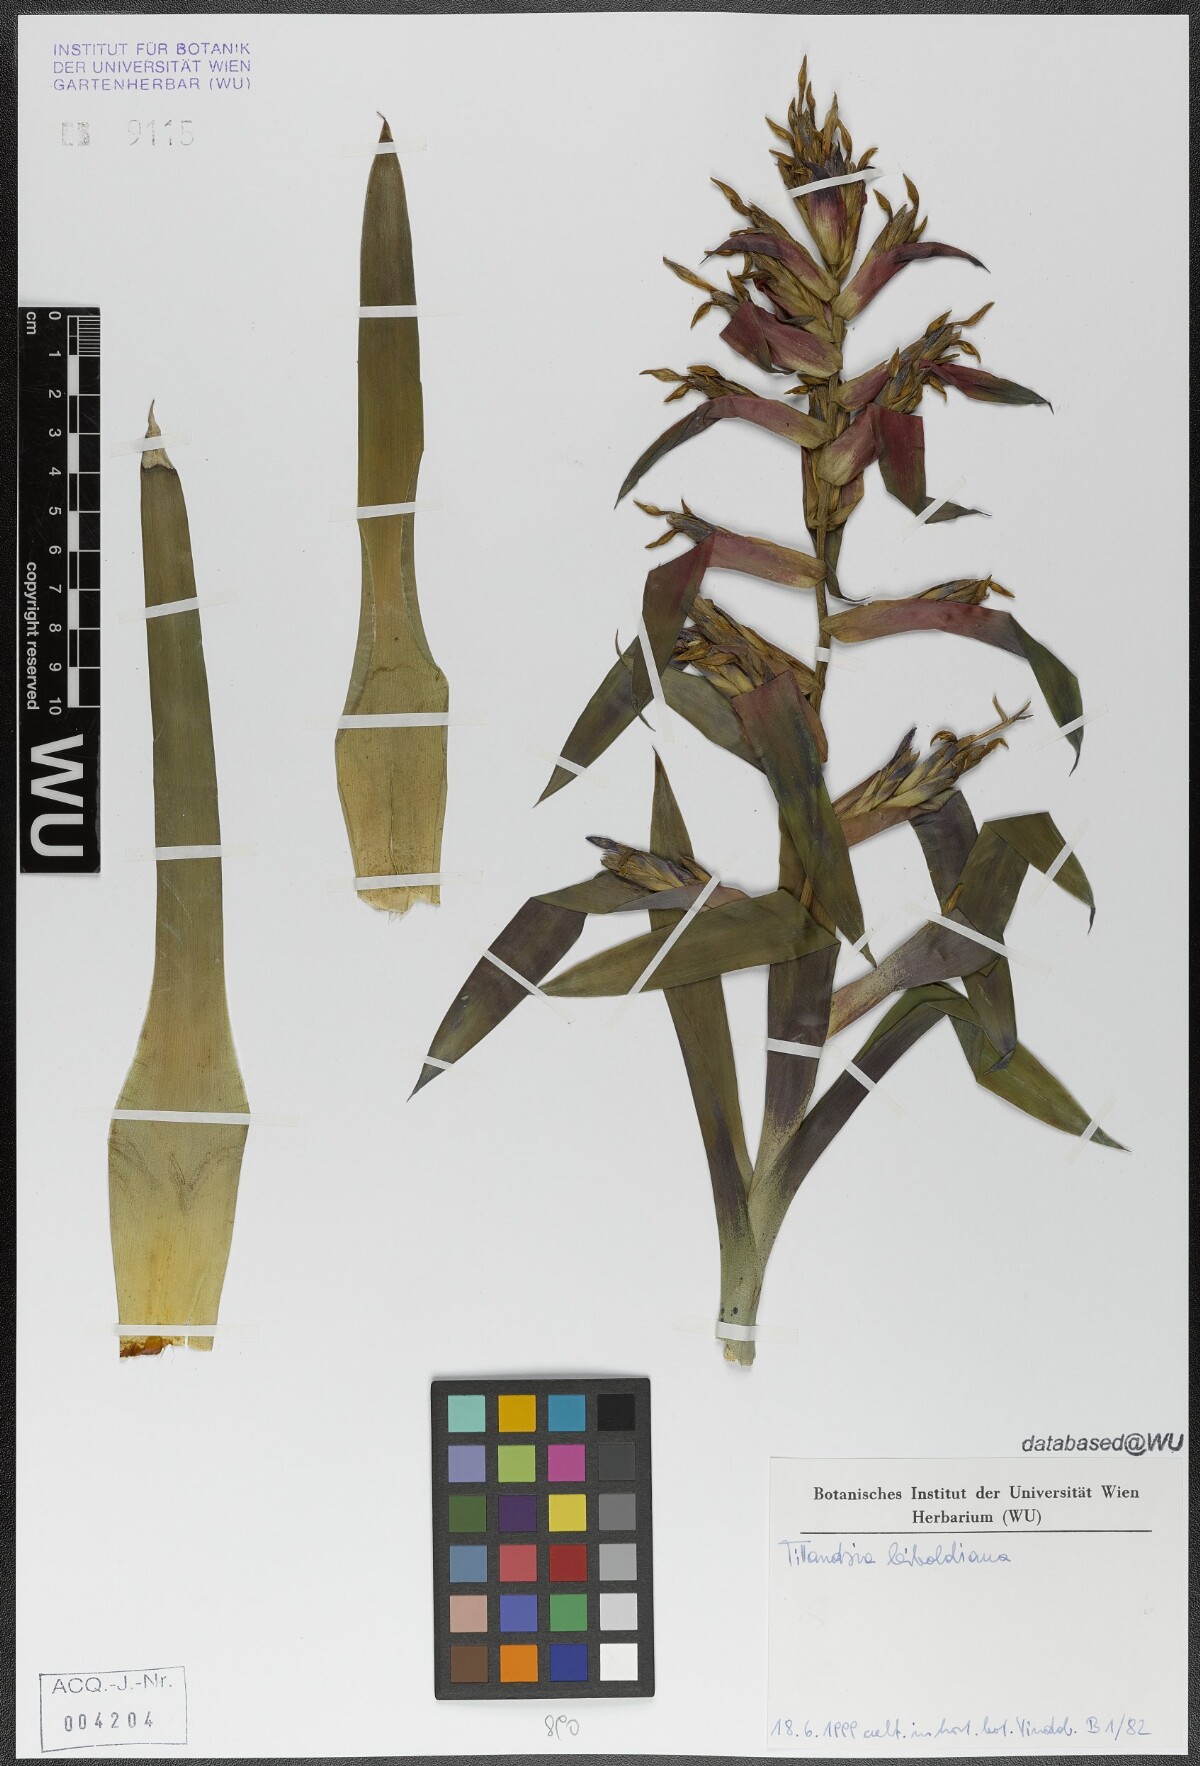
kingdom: Plantae
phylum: Tracheophyta
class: Liliopsida
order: Poales
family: Bromeliaceae
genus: Tillandsia
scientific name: Tillandsia leiboldiana
